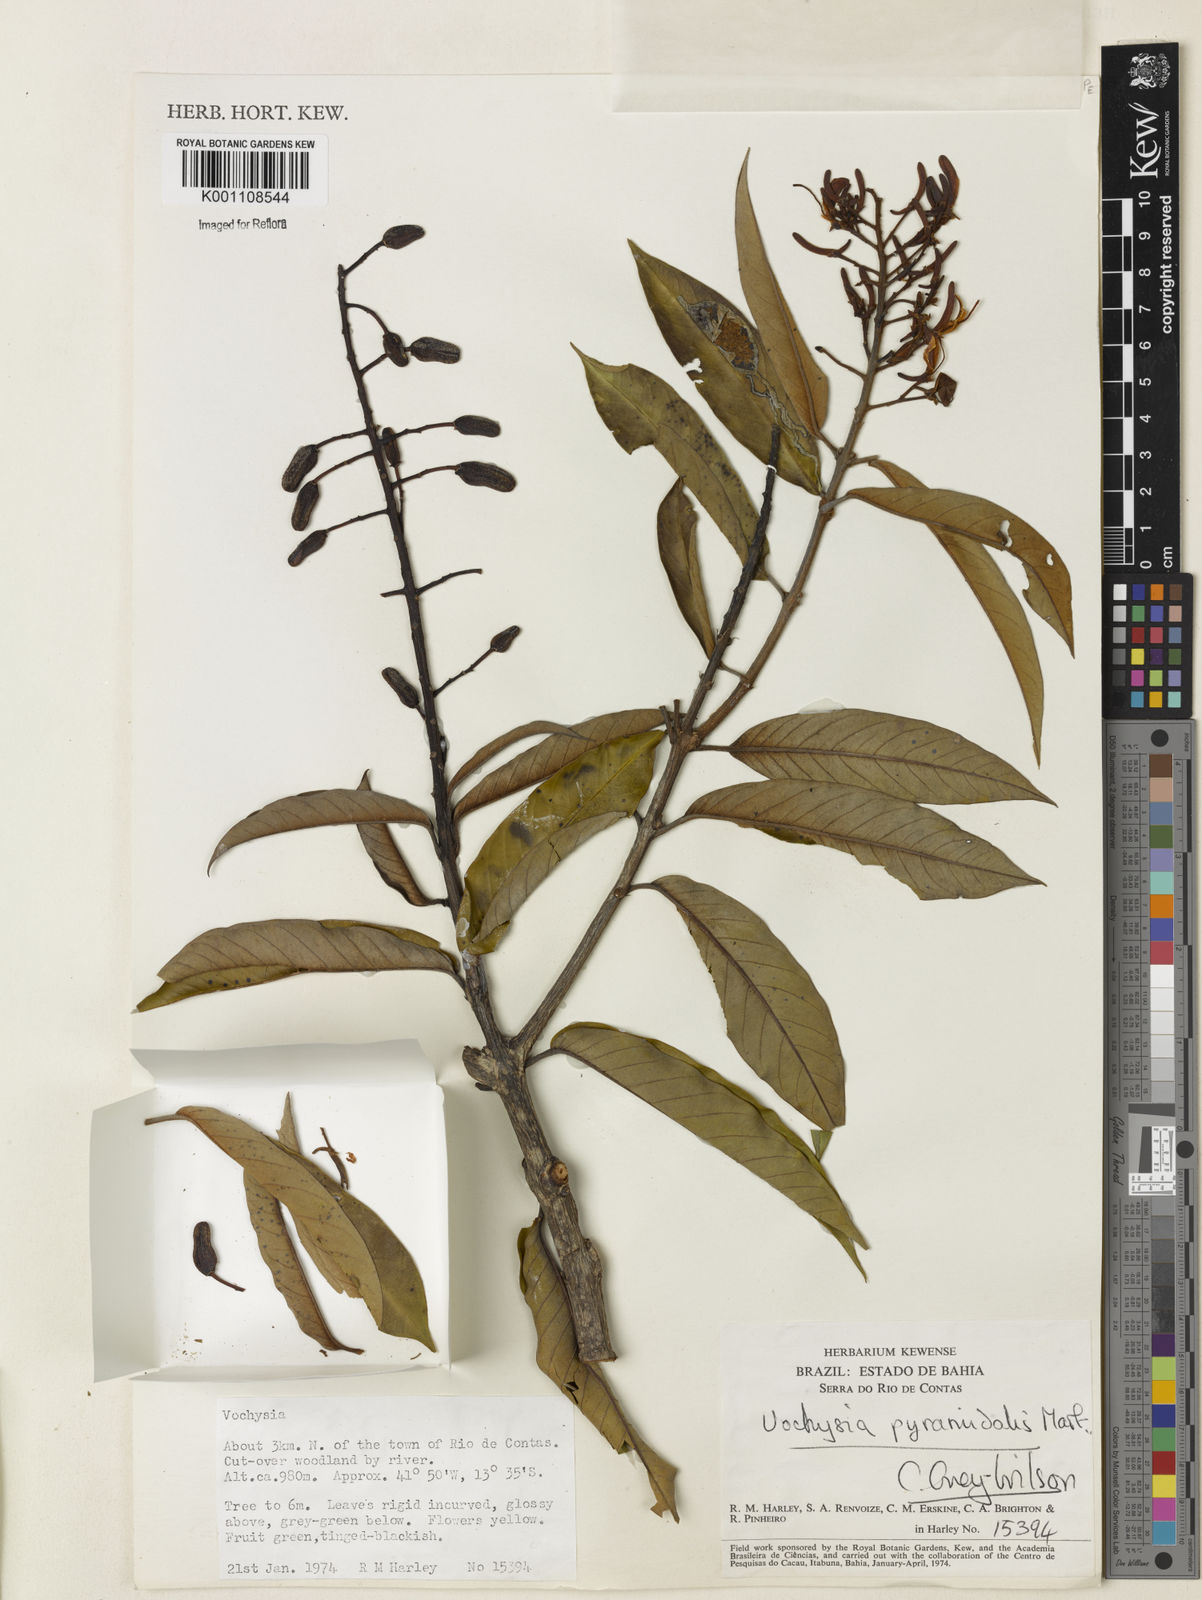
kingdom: Plantae
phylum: Tracheophyta
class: Magnoliopsida
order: Myrtales
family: Vochysiaceae
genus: Vochysia
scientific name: Vochysia pyramidalis
